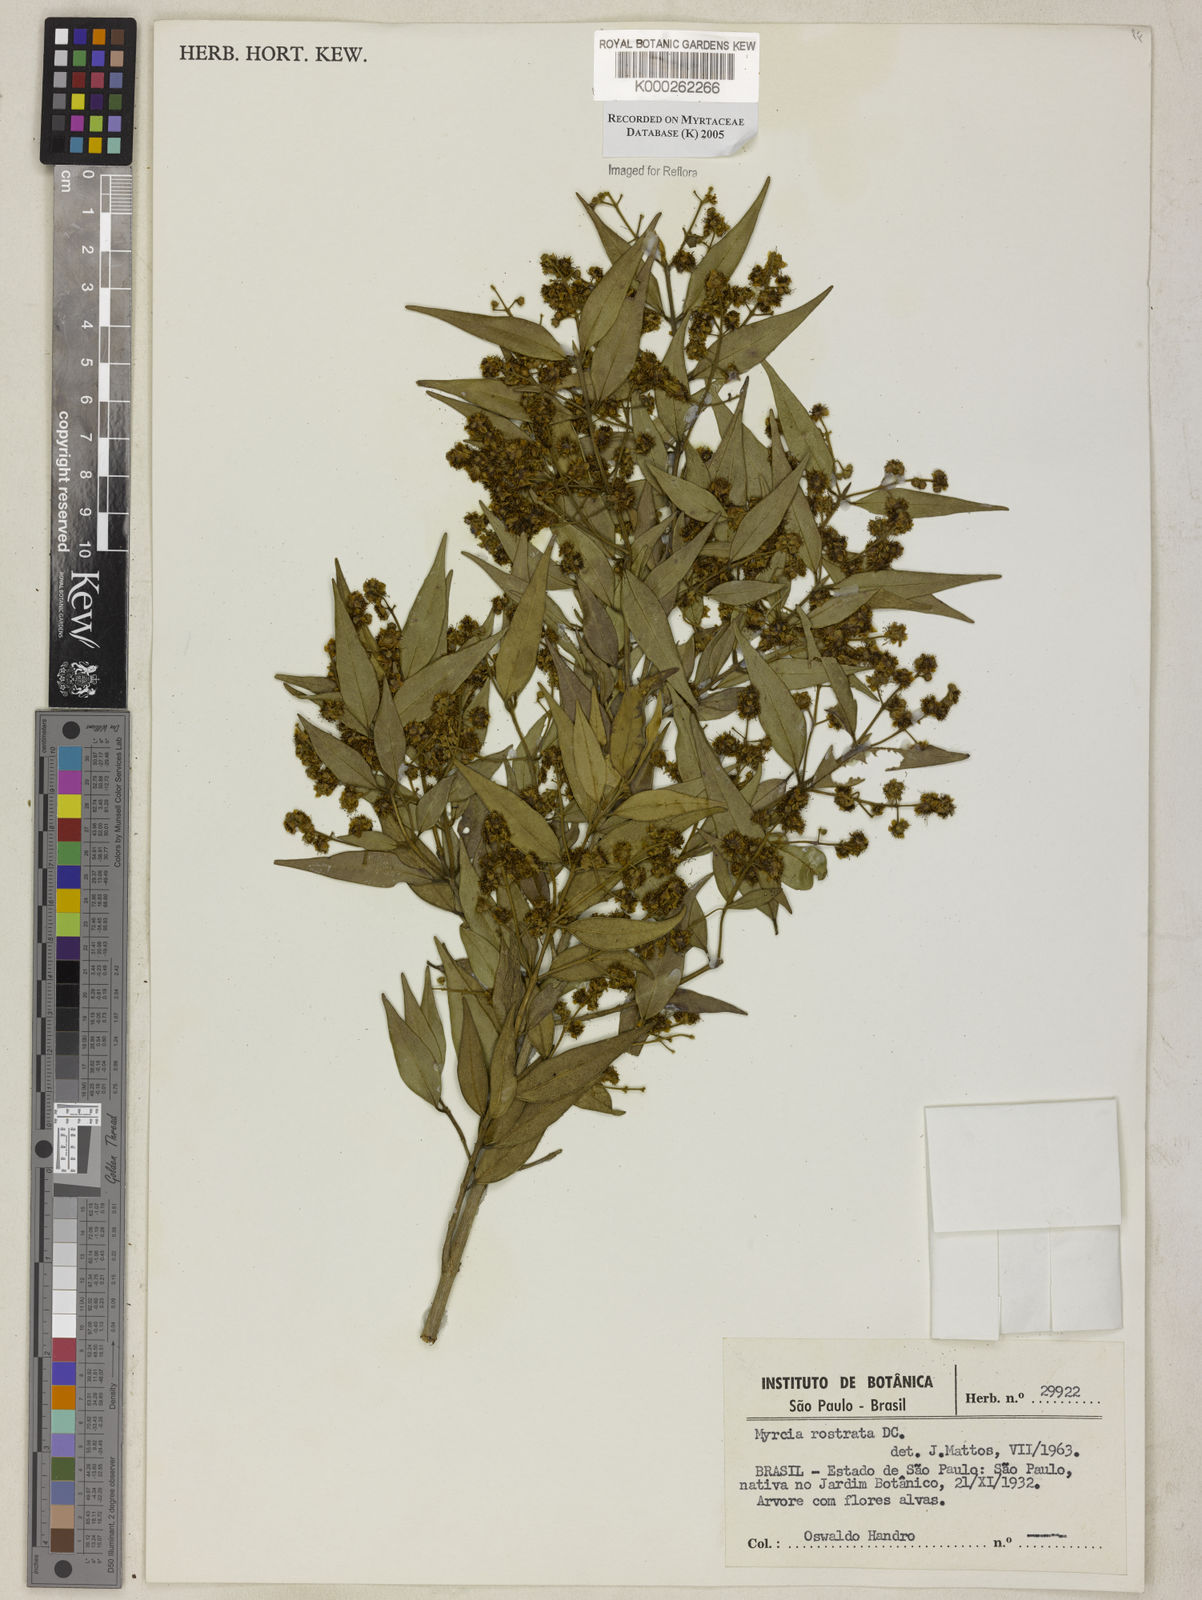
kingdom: Plantae
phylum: Tracheophyta
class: Magnoliopsida
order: Myrtales
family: Myrtaceae
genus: Myrcia
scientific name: Myrcia splendens
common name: Surinam cherry
